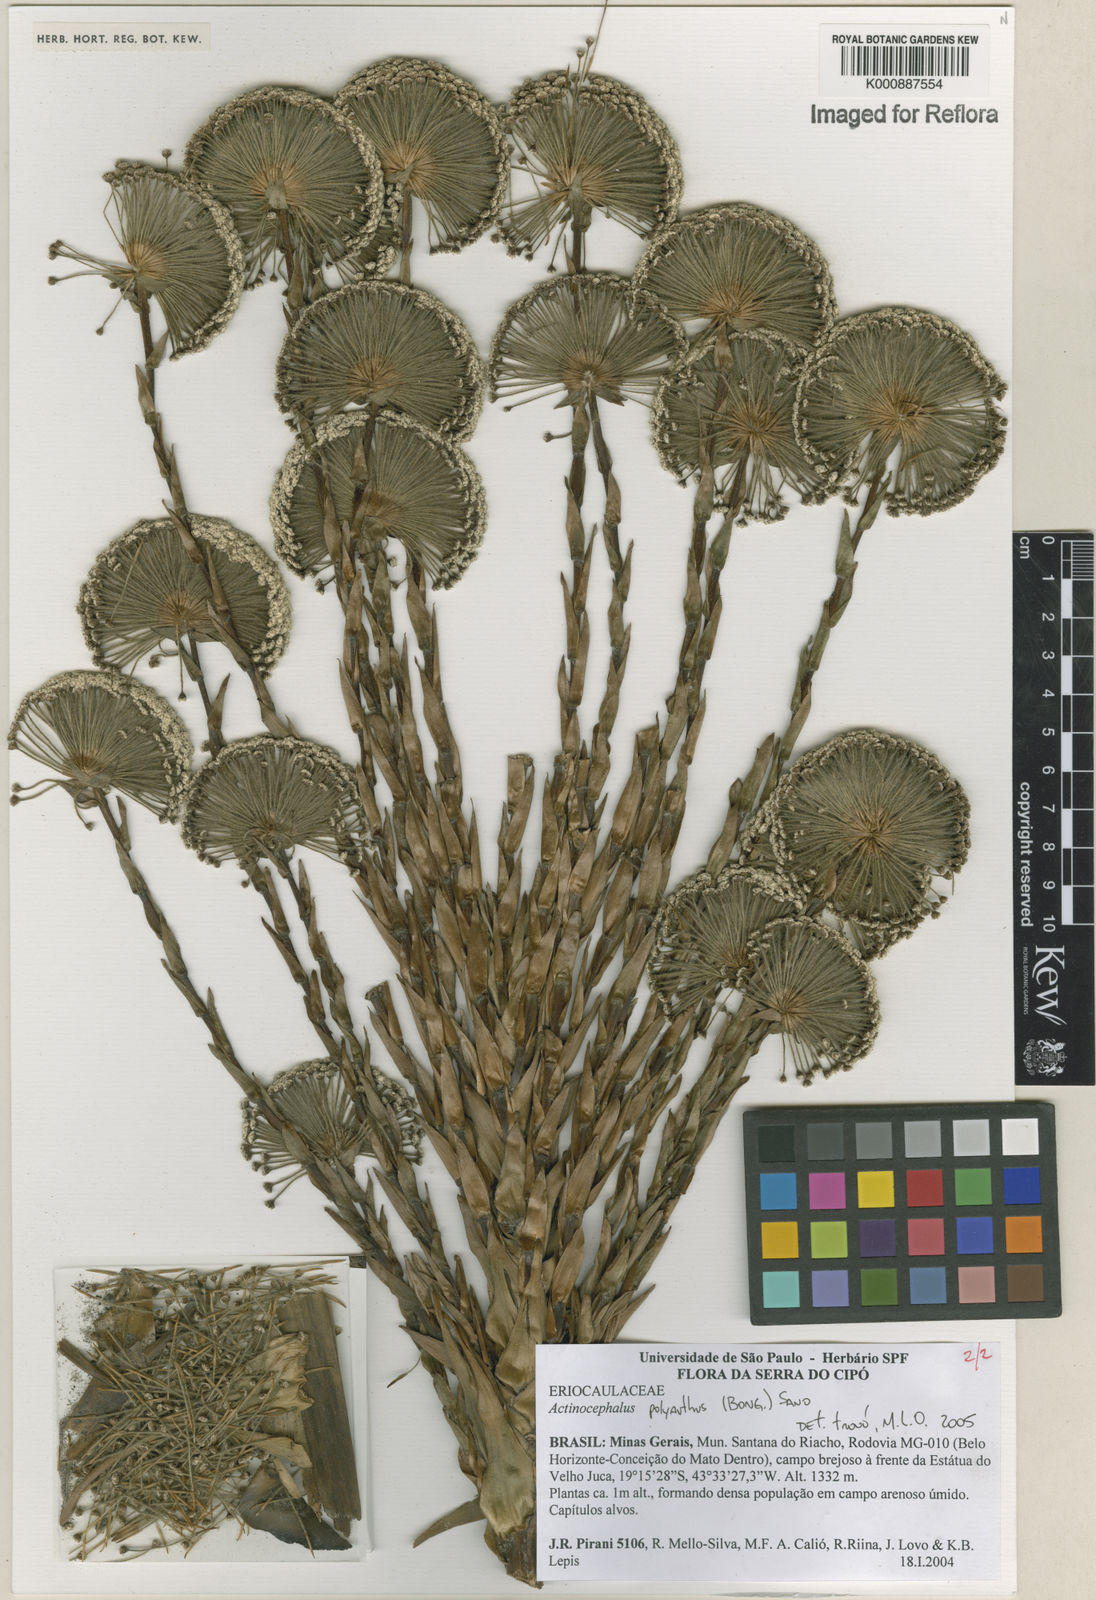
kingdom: Plantae
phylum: Tracheophyta
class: Liliopsida
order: Poales
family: Eriocaulaceae
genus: Paepalanthus
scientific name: Paepalanthus polyanthus
